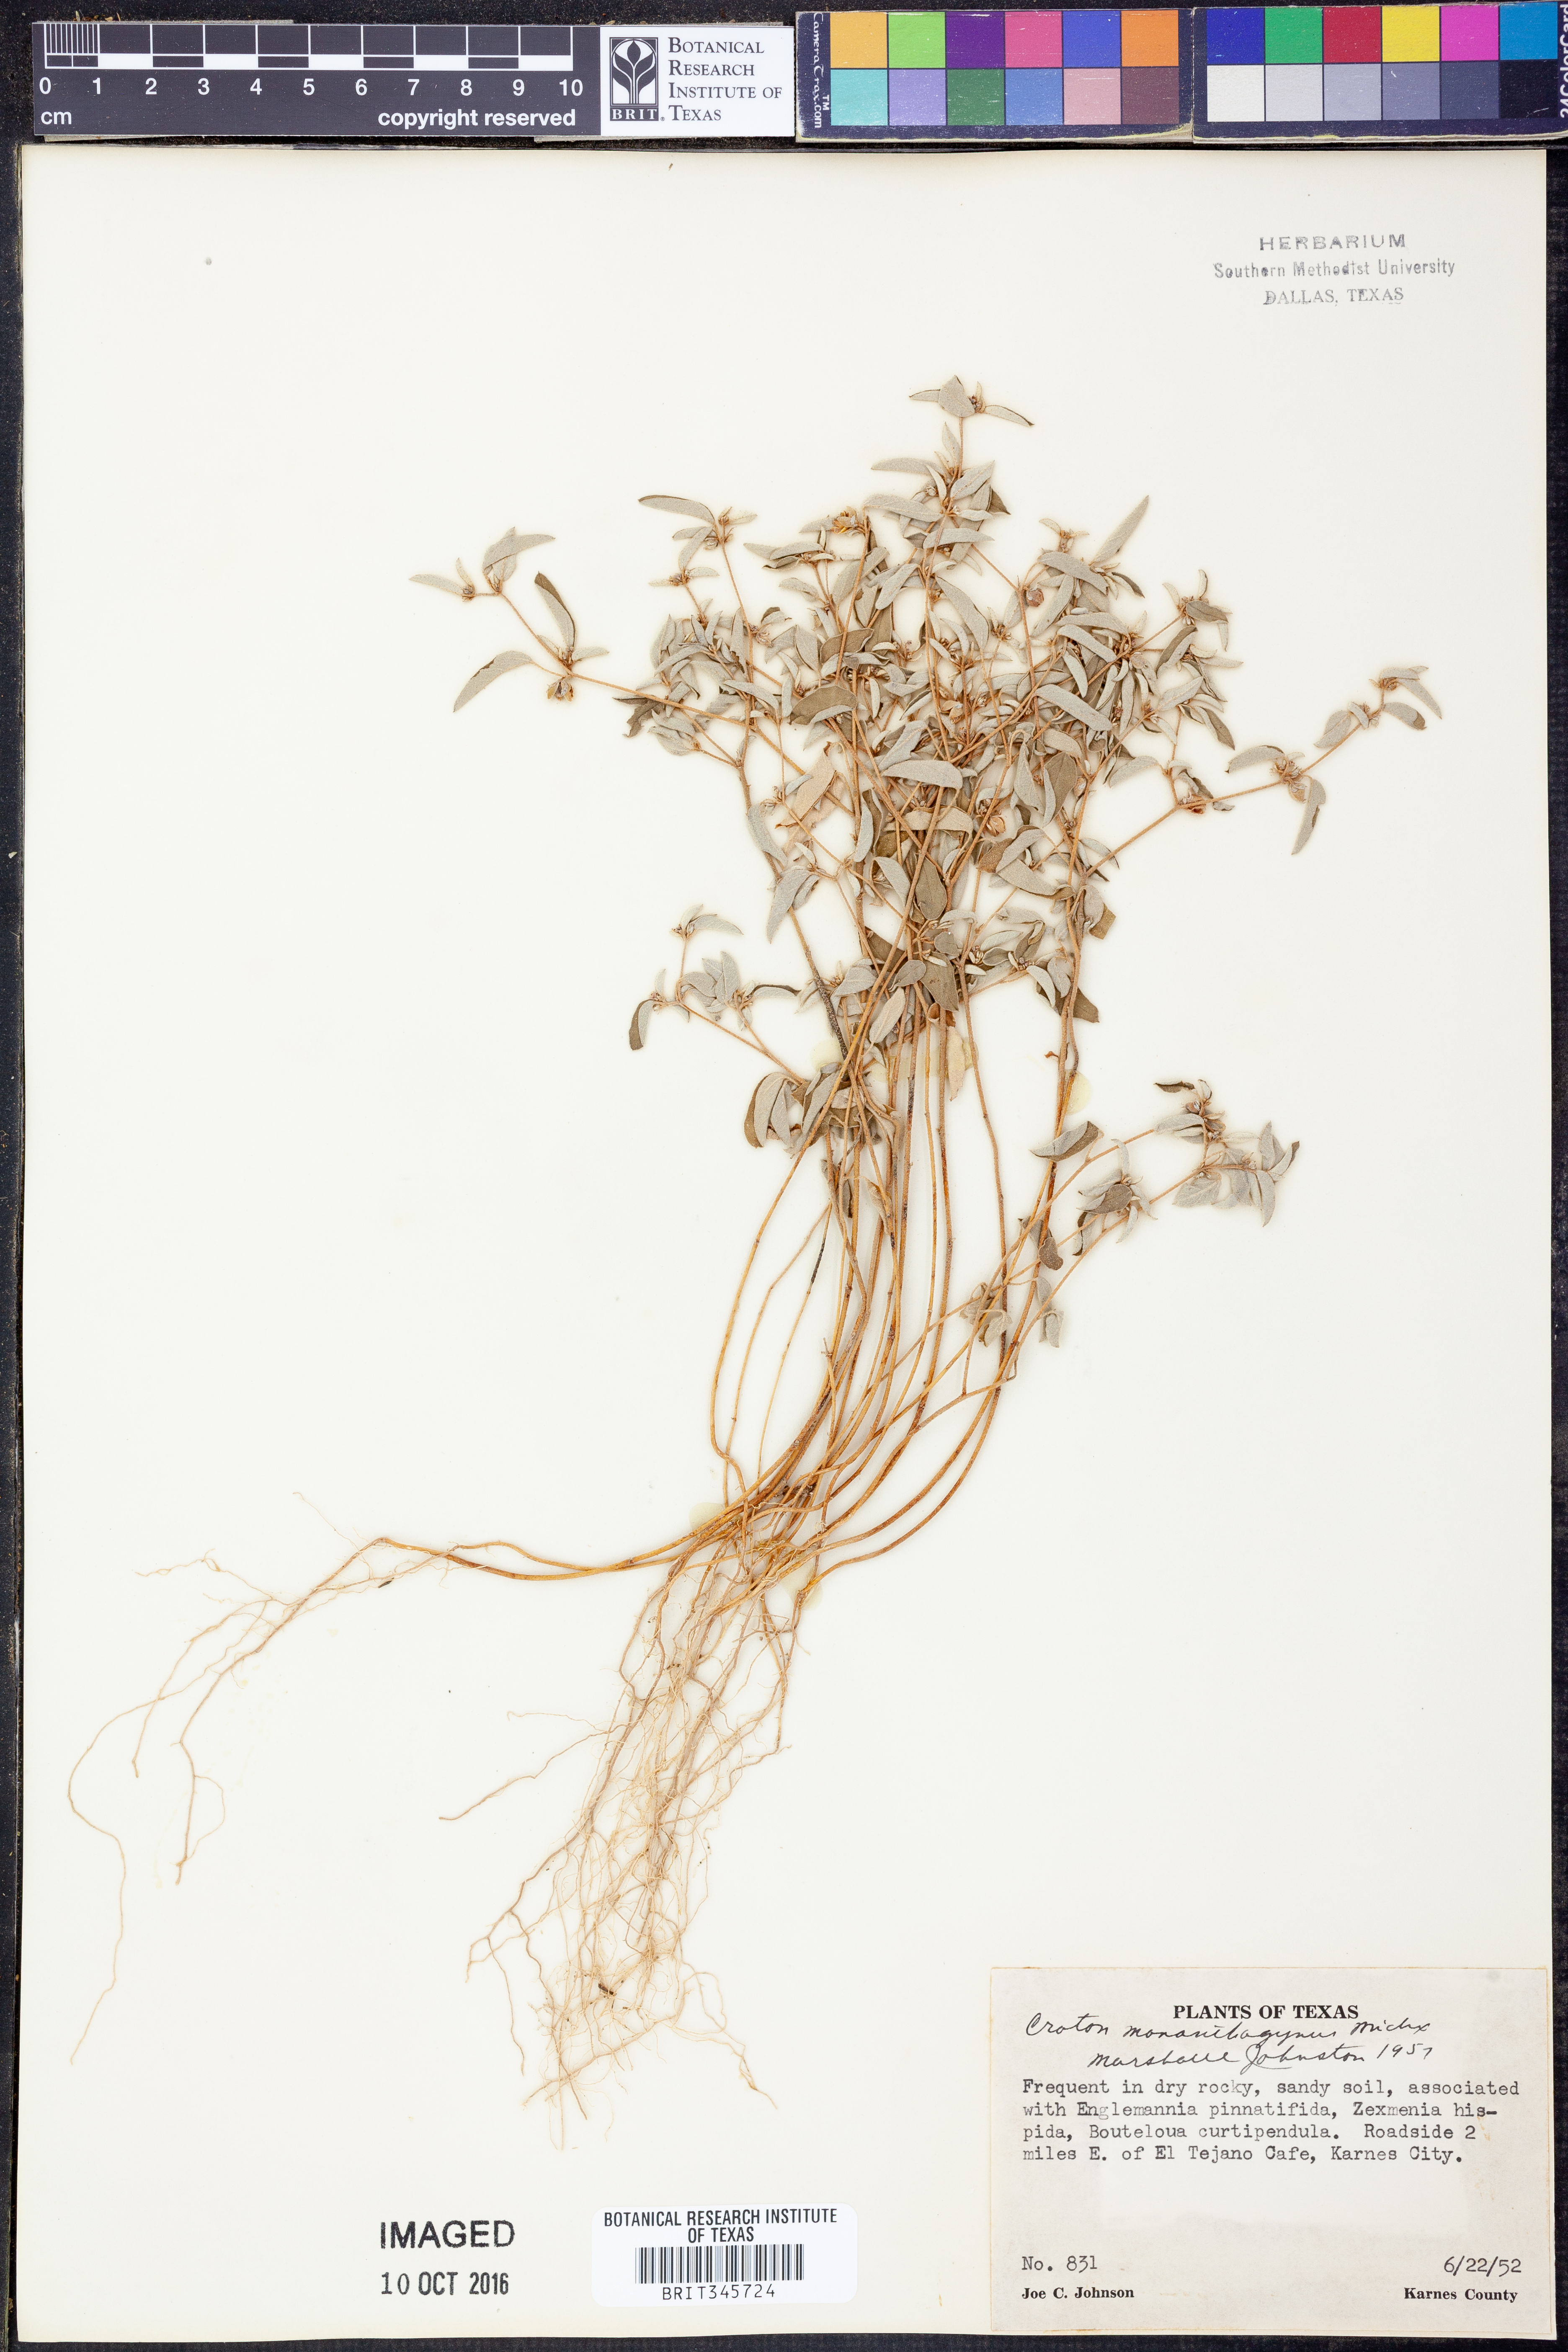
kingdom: Plantae
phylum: Tracheophyta
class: Magnoliopsida
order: Malpighiales
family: Euphorbiaceae
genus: Croton
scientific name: Croton monanthogynus
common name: One-seed croton
